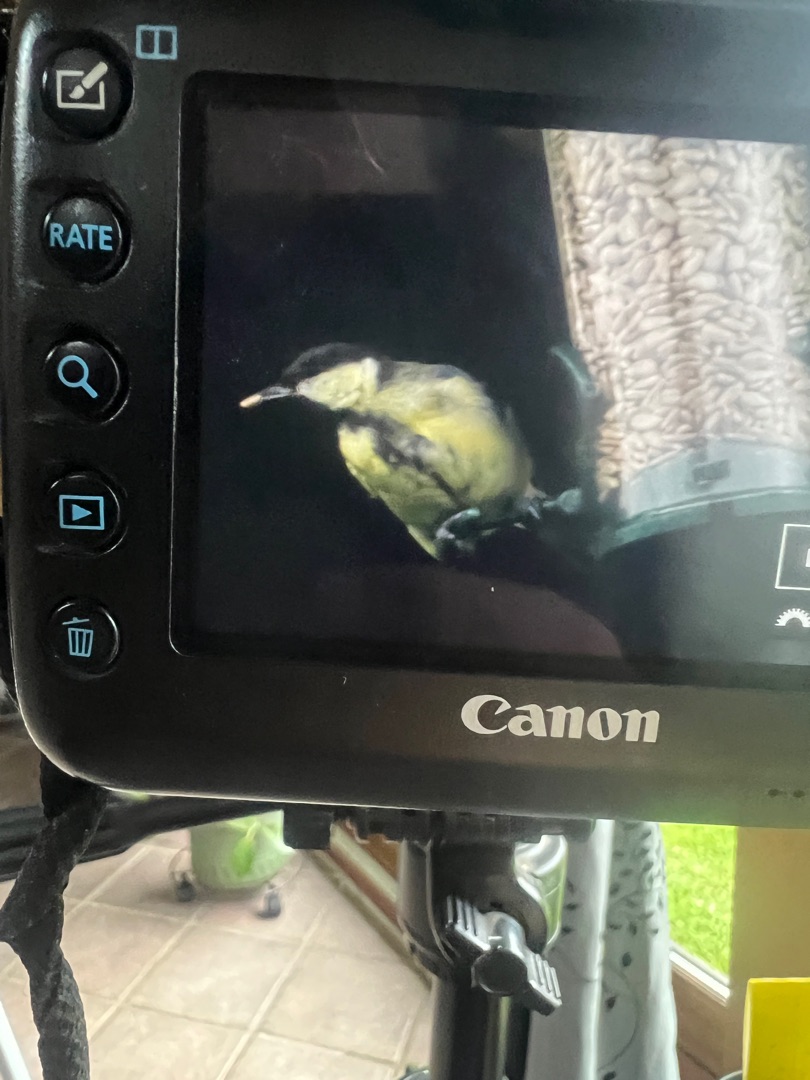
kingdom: Animalia
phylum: Chordata
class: Aves
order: Passeriformes
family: Paridae
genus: Parus
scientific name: Parus major
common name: Musvit
